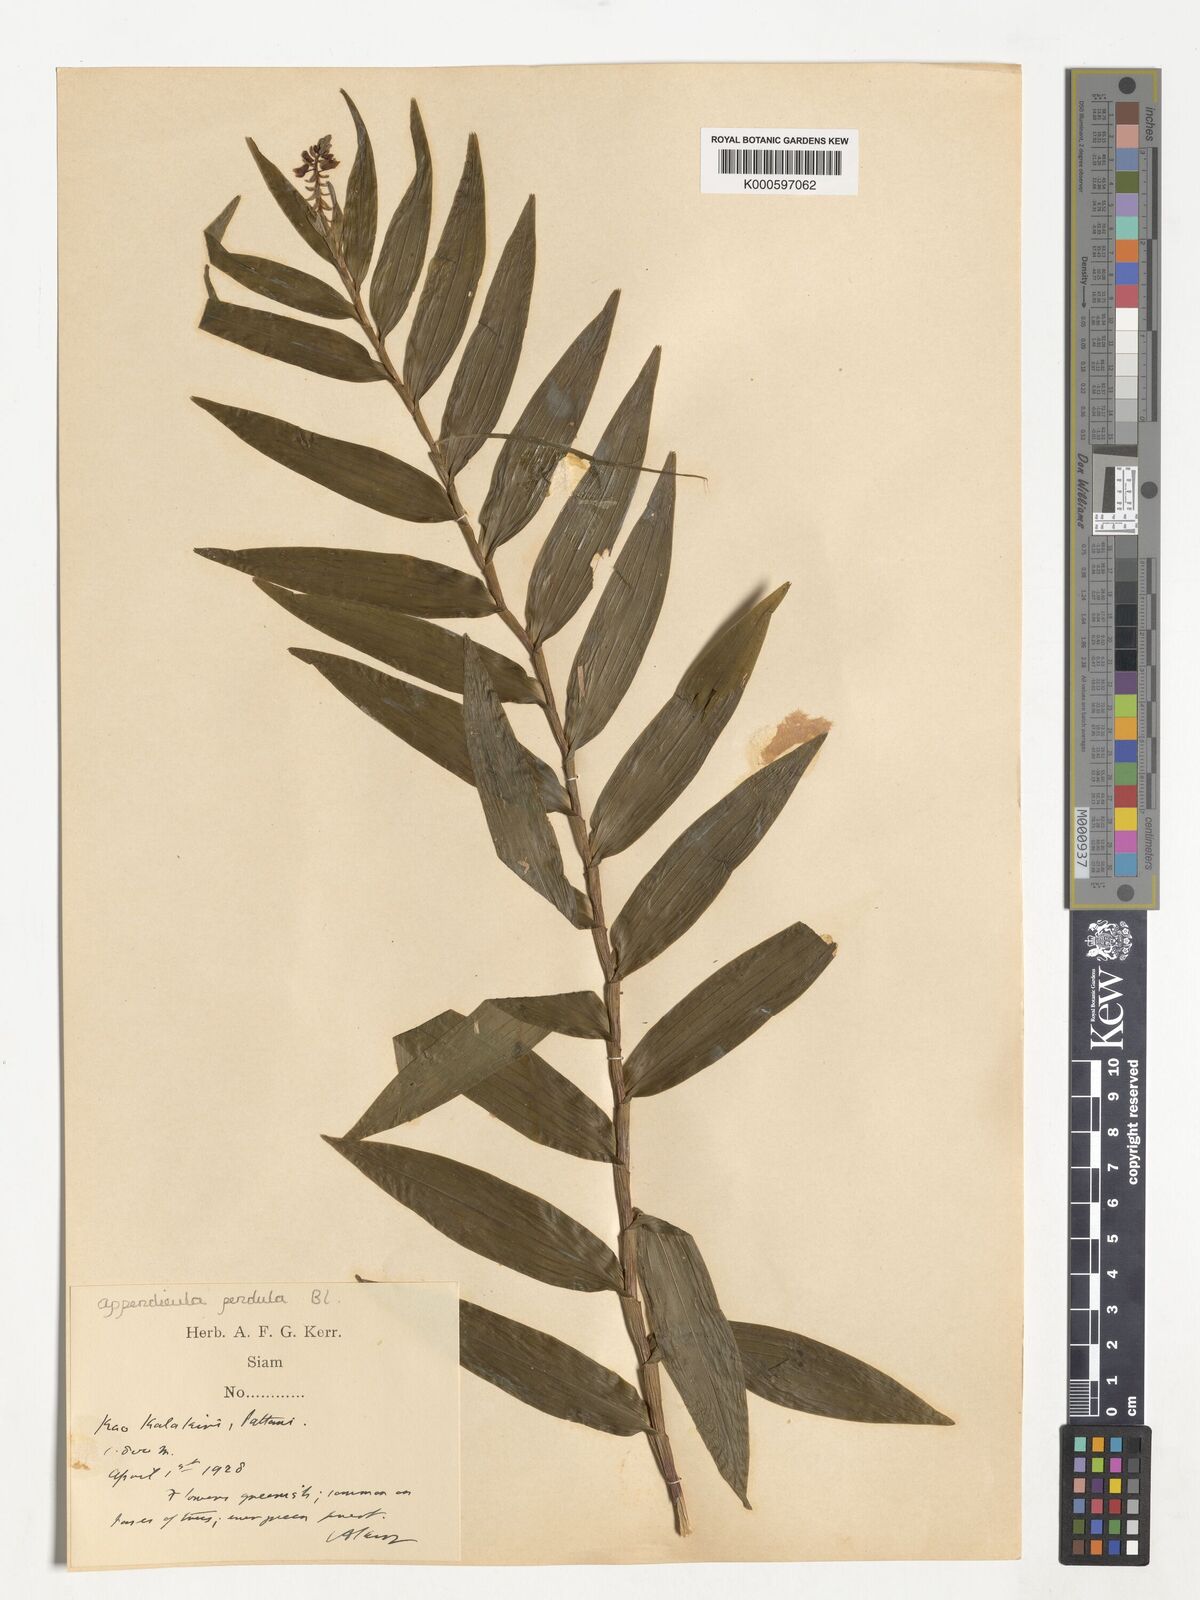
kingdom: Plantae
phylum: Tracheophyta
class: Liliopsida
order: Asparagales
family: Orchidaceae
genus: Appendicula
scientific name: Appendicula pendula
